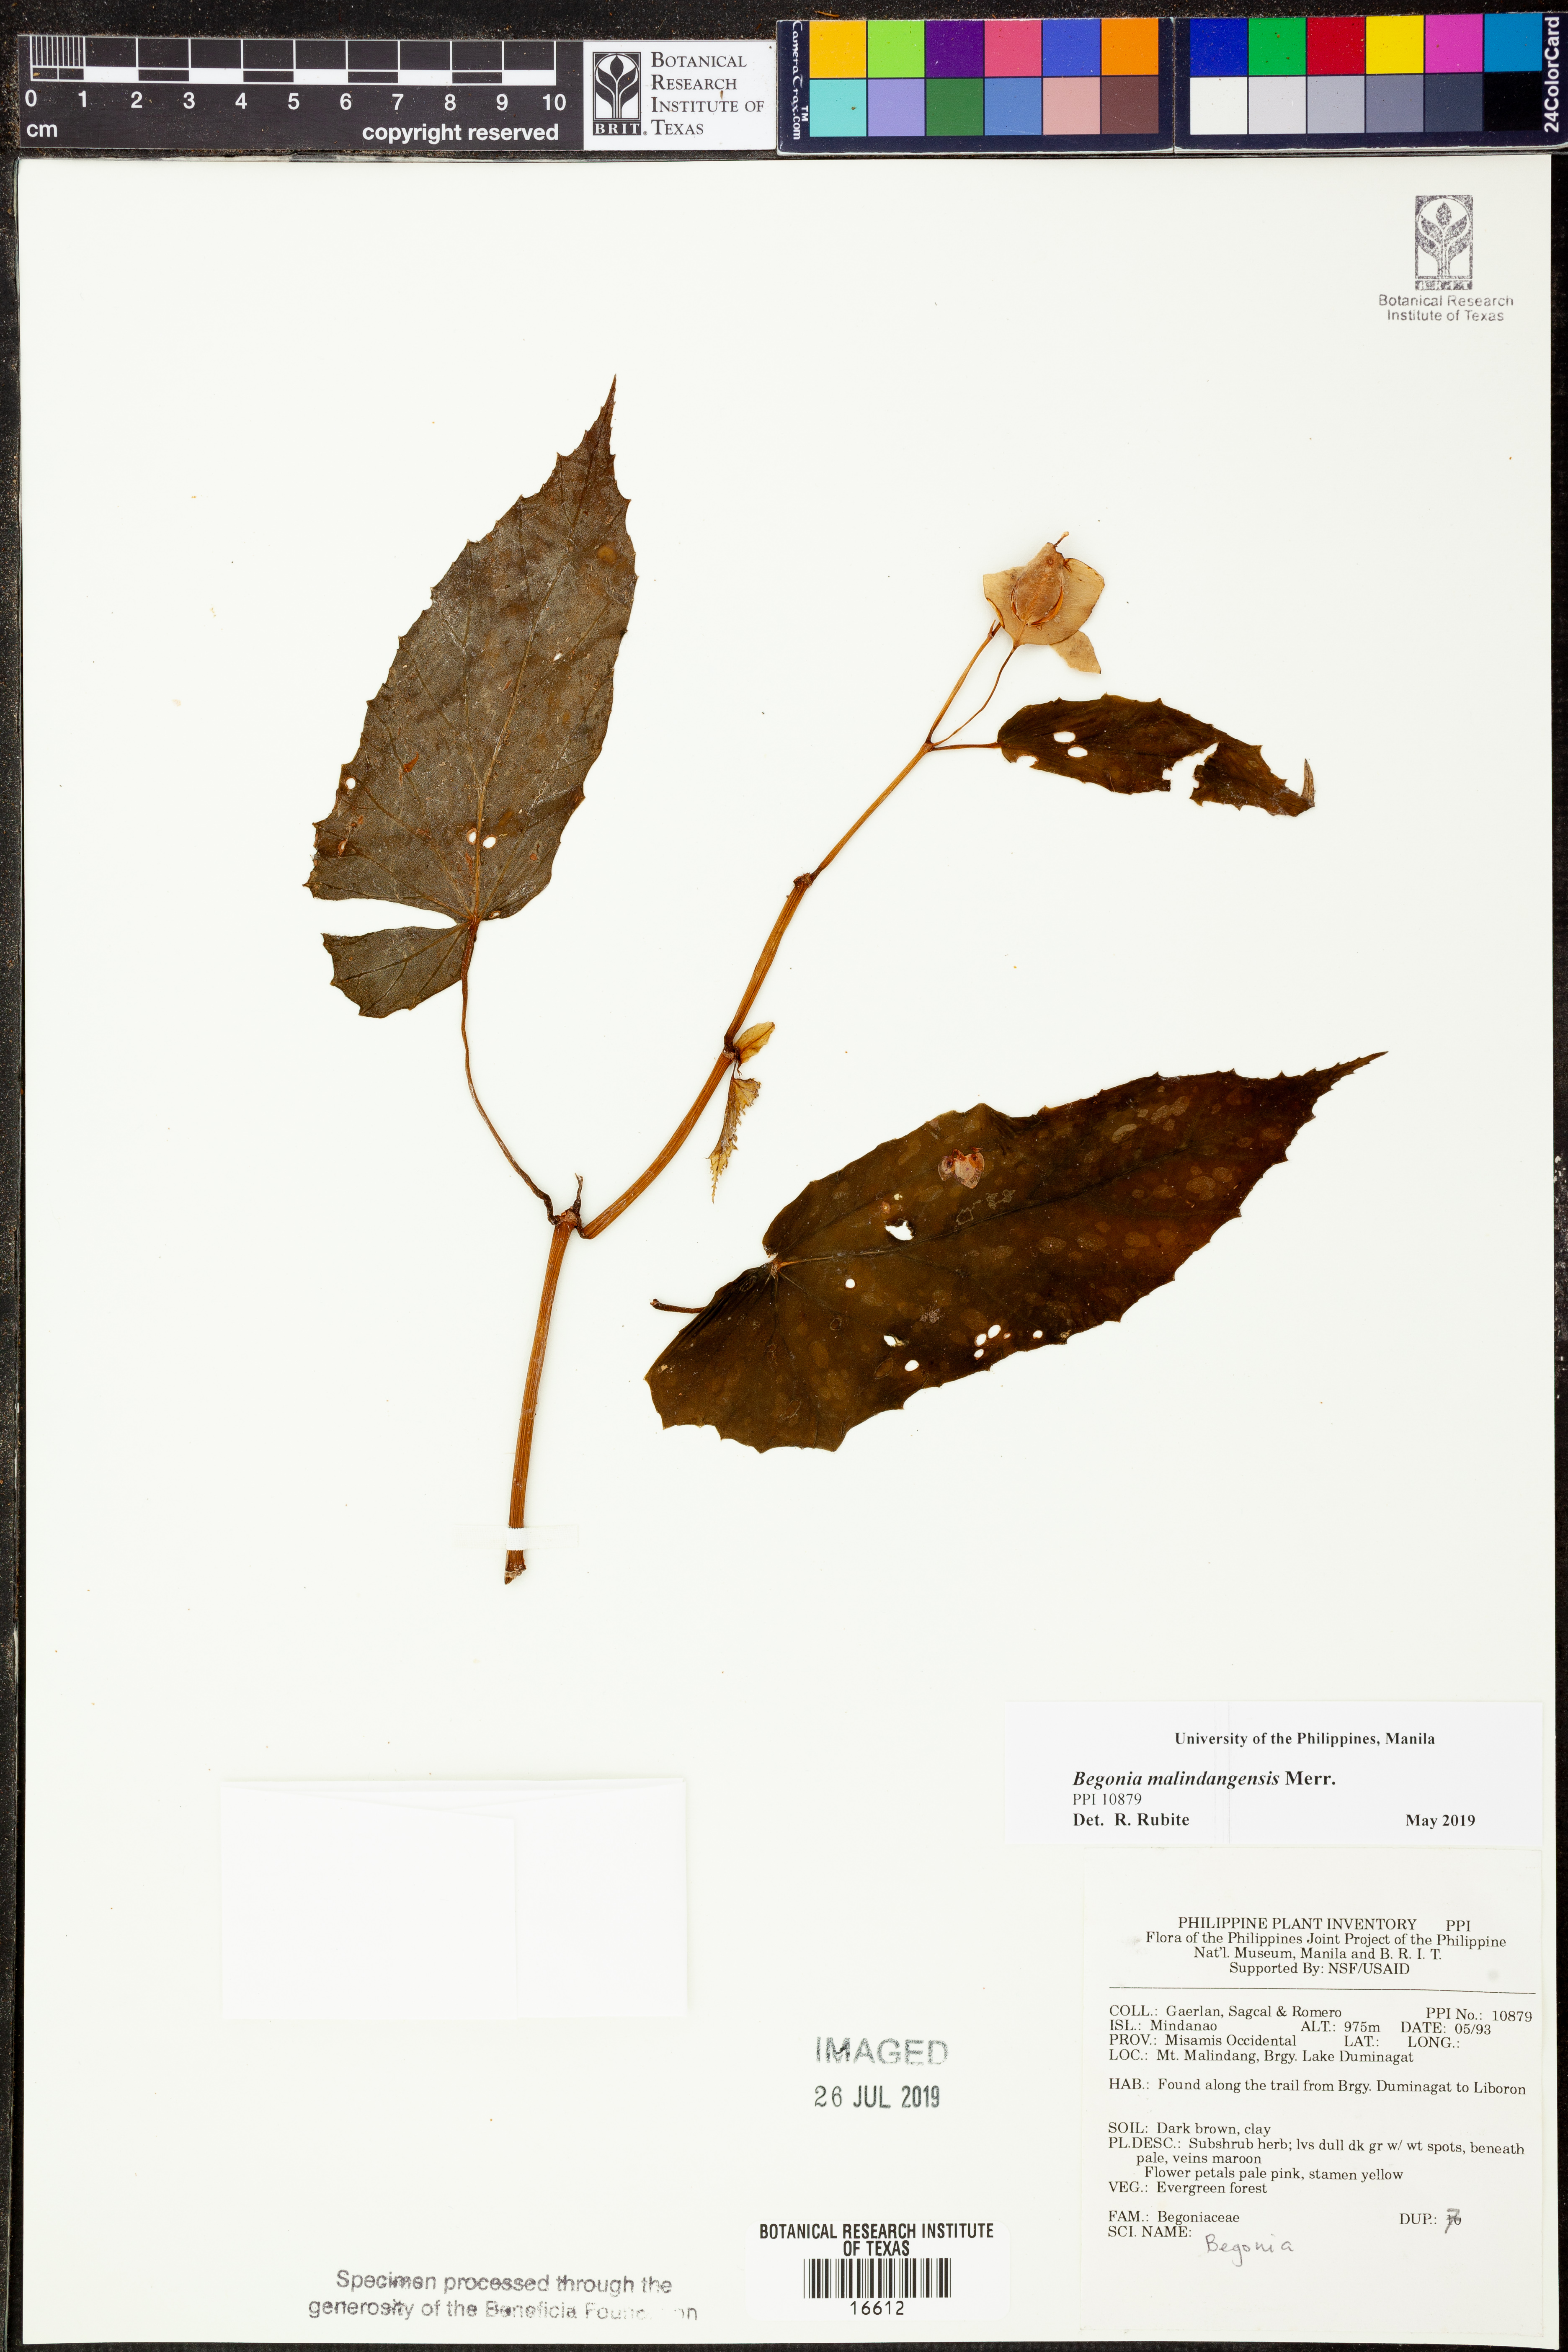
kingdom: Plantae
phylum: Tracheophyta
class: Magnoliopsida
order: Cucurbitales
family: Begoniaceae
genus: Begonia
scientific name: Begonia malindangensis
